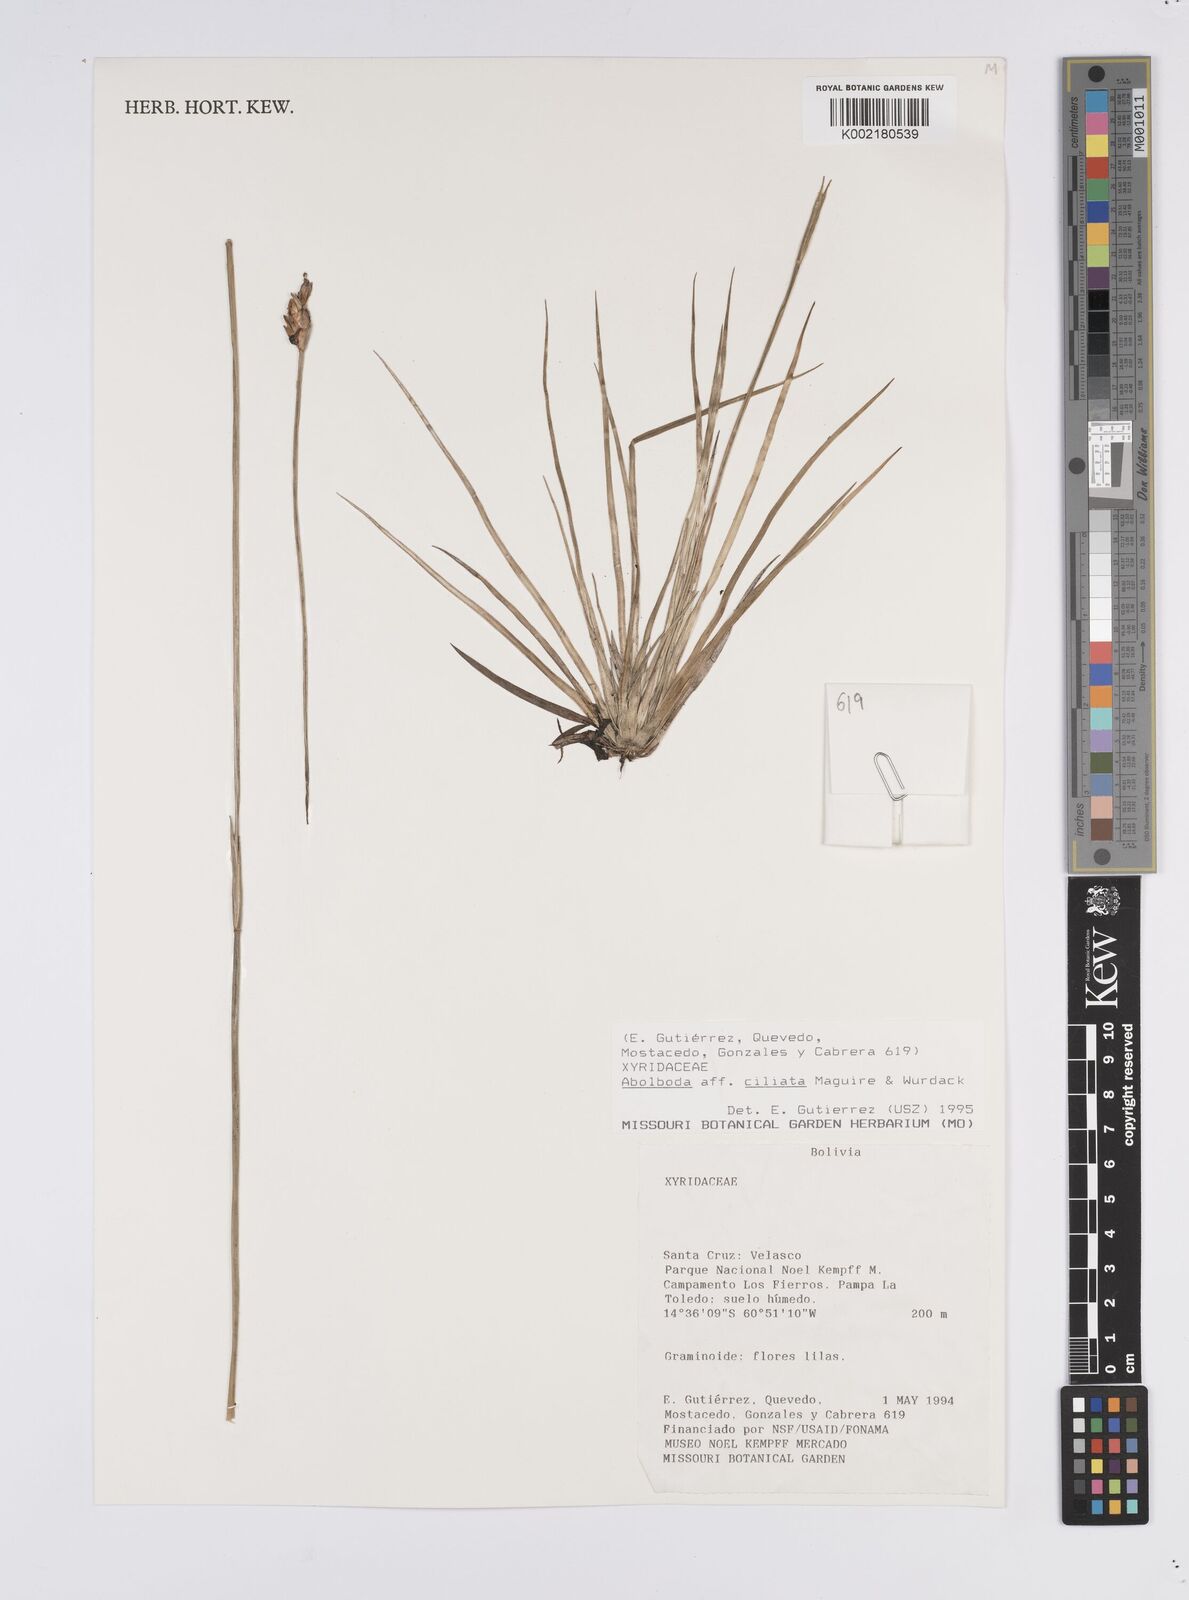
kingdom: Plantae
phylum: Tracheophyta
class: Liliopsida
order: Poales
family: Xyridaceae
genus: Abolboda
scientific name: Abolboda ciliata
